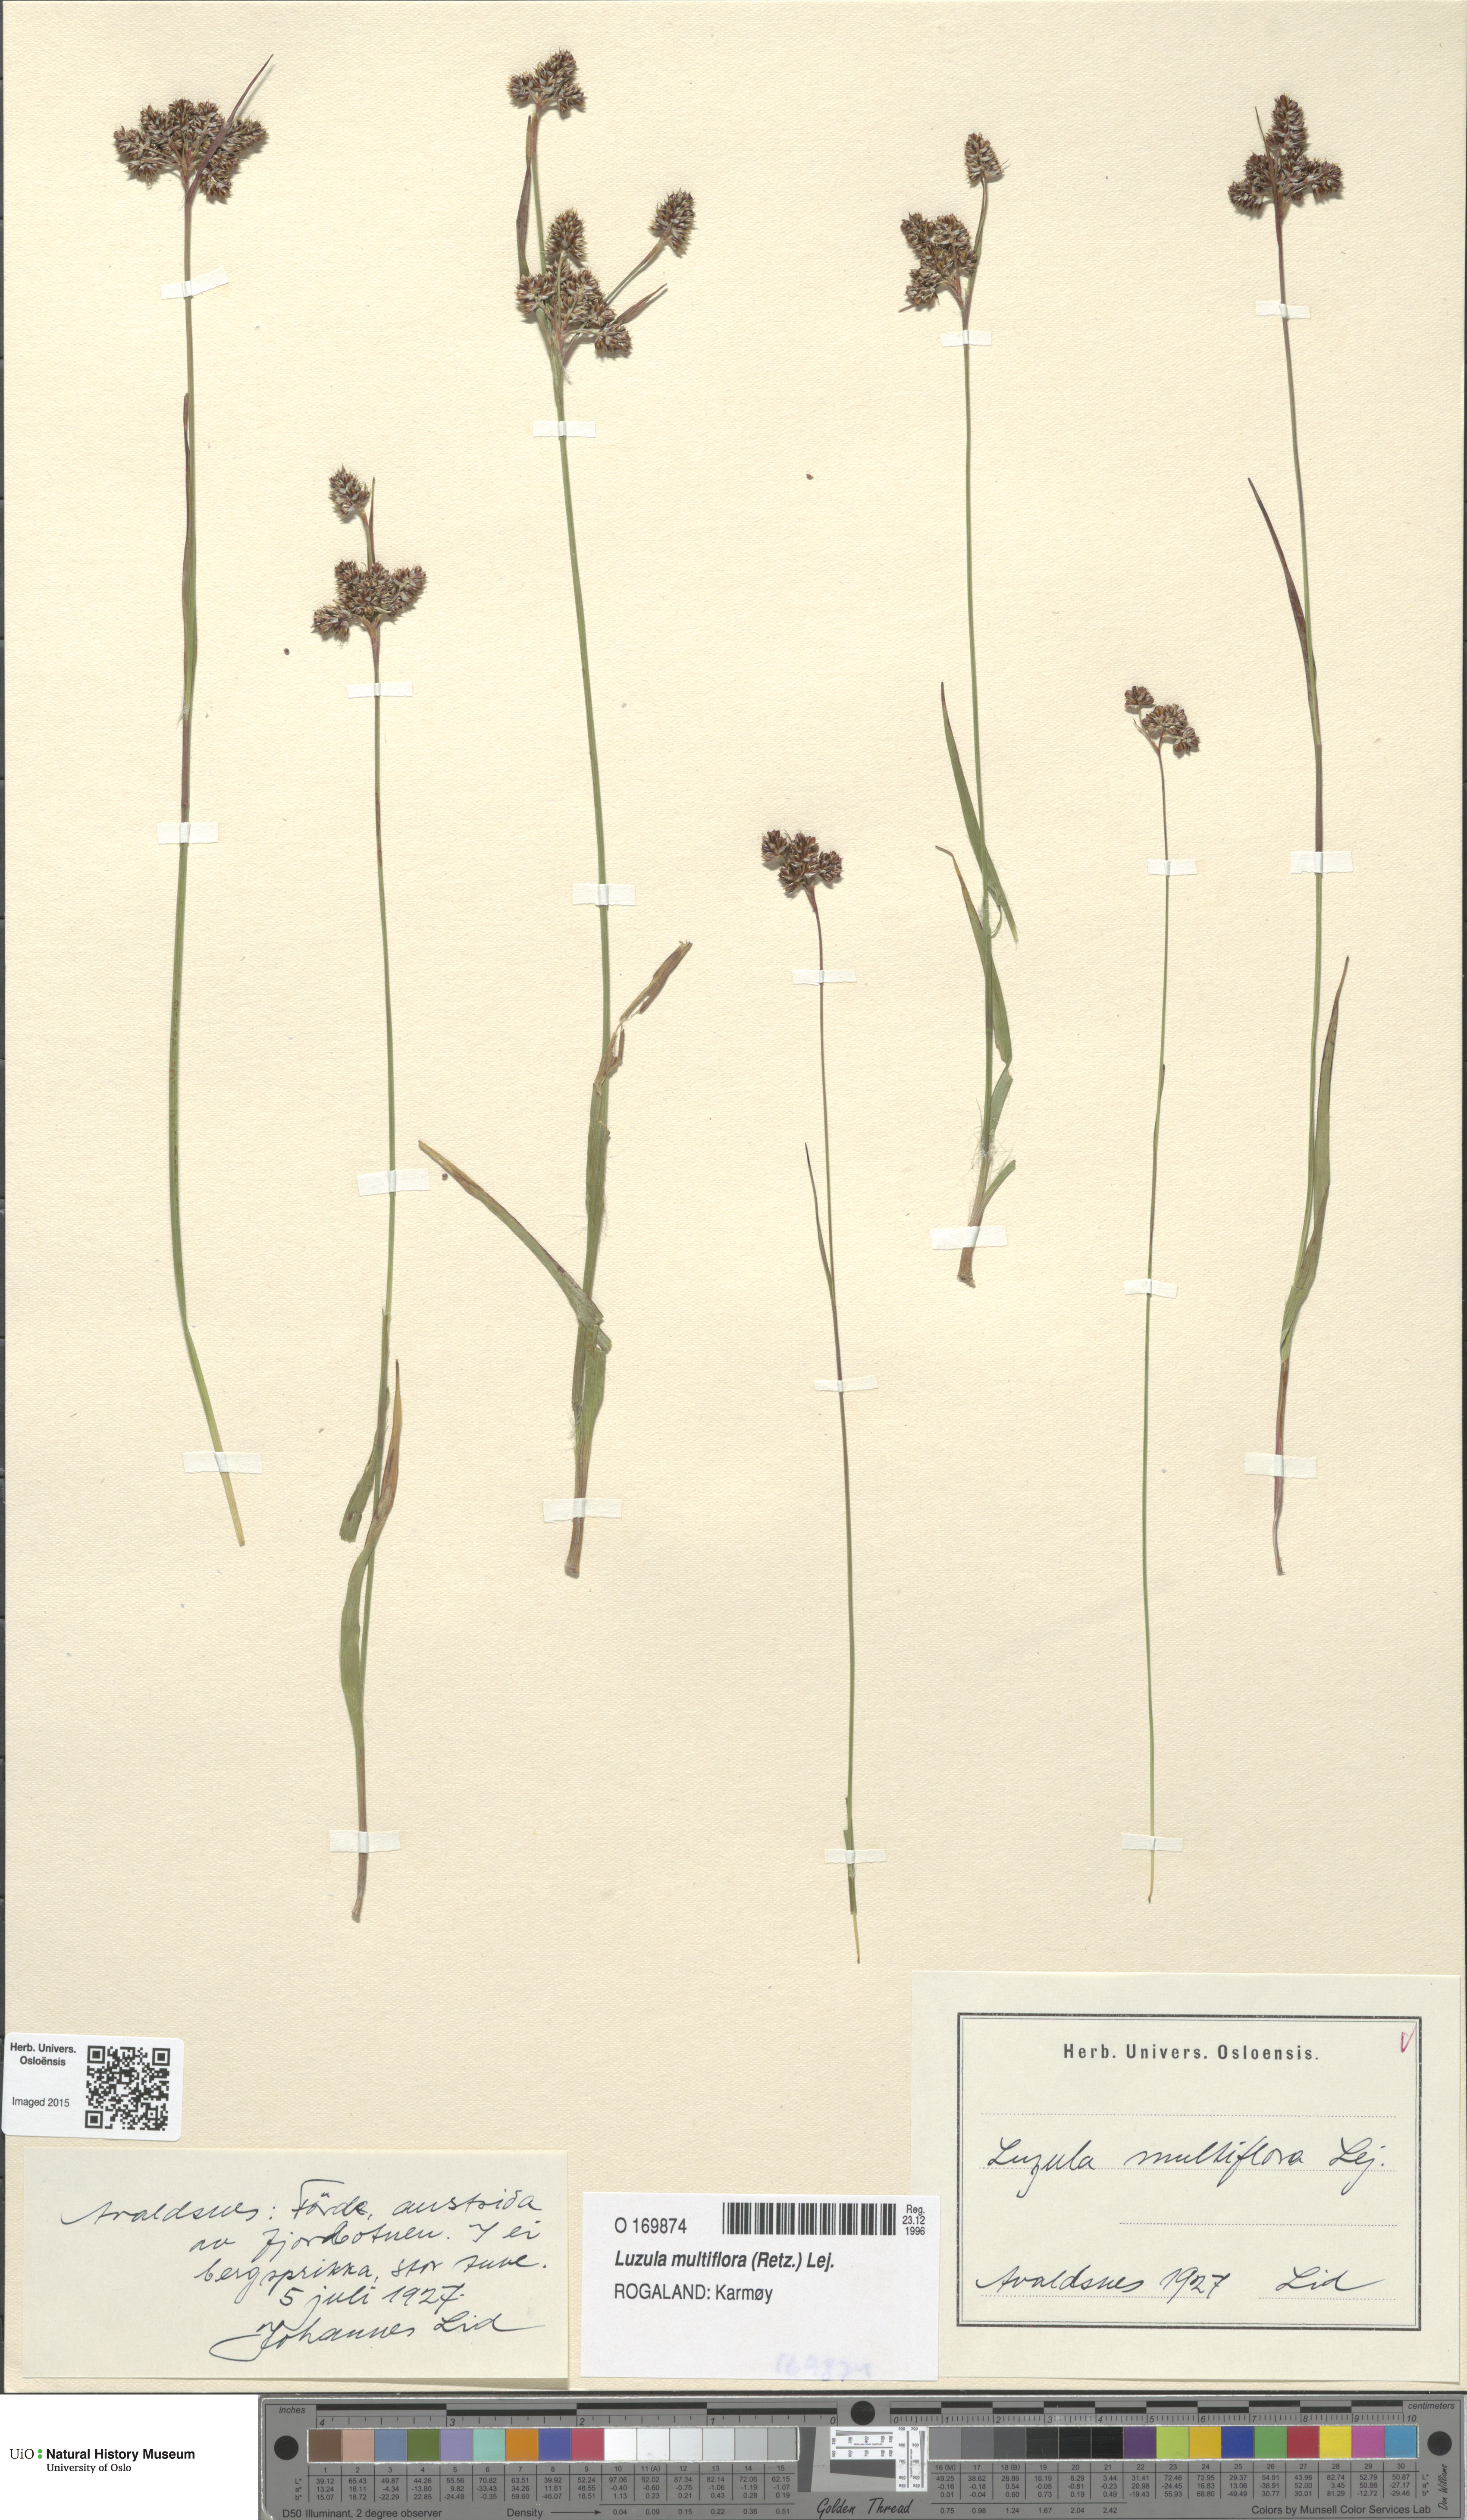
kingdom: Plantae
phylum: Tracheophyta
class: Liliopsida
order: Poales
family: Juncaceae
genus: Luzula
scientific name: Luzula multiflora
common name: Heath wood-rush
